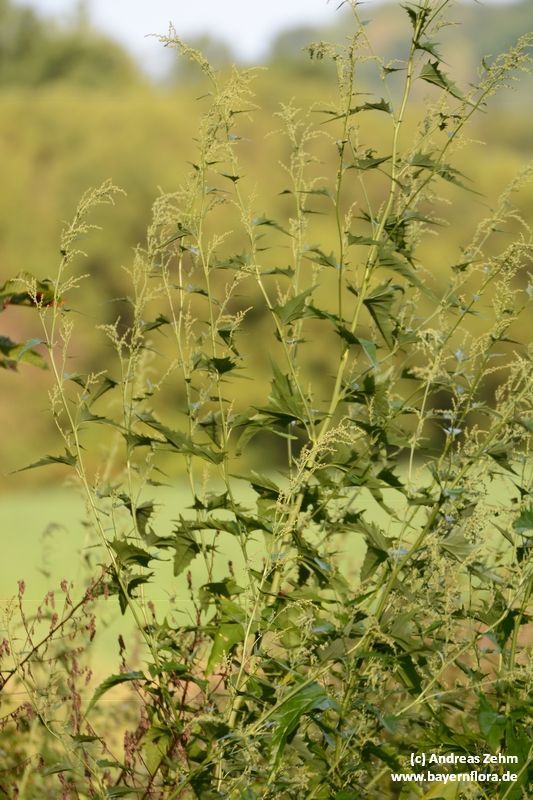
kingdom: Plantae
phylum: Tracheophyta
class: Magnoliopsida
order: Caryophyllales
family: Amaranthaceae
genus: Atriplex
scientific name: Atriplex sagittata
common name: Purple orache
